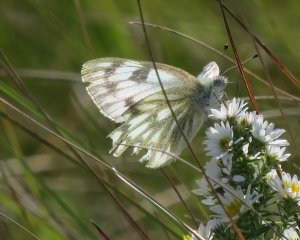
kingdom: Animalia
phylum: Arthropoda
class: Insecta
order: Lepidoptera
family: Pieridae
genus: Pontia
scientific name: Pontia protodice
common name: Checkered White
